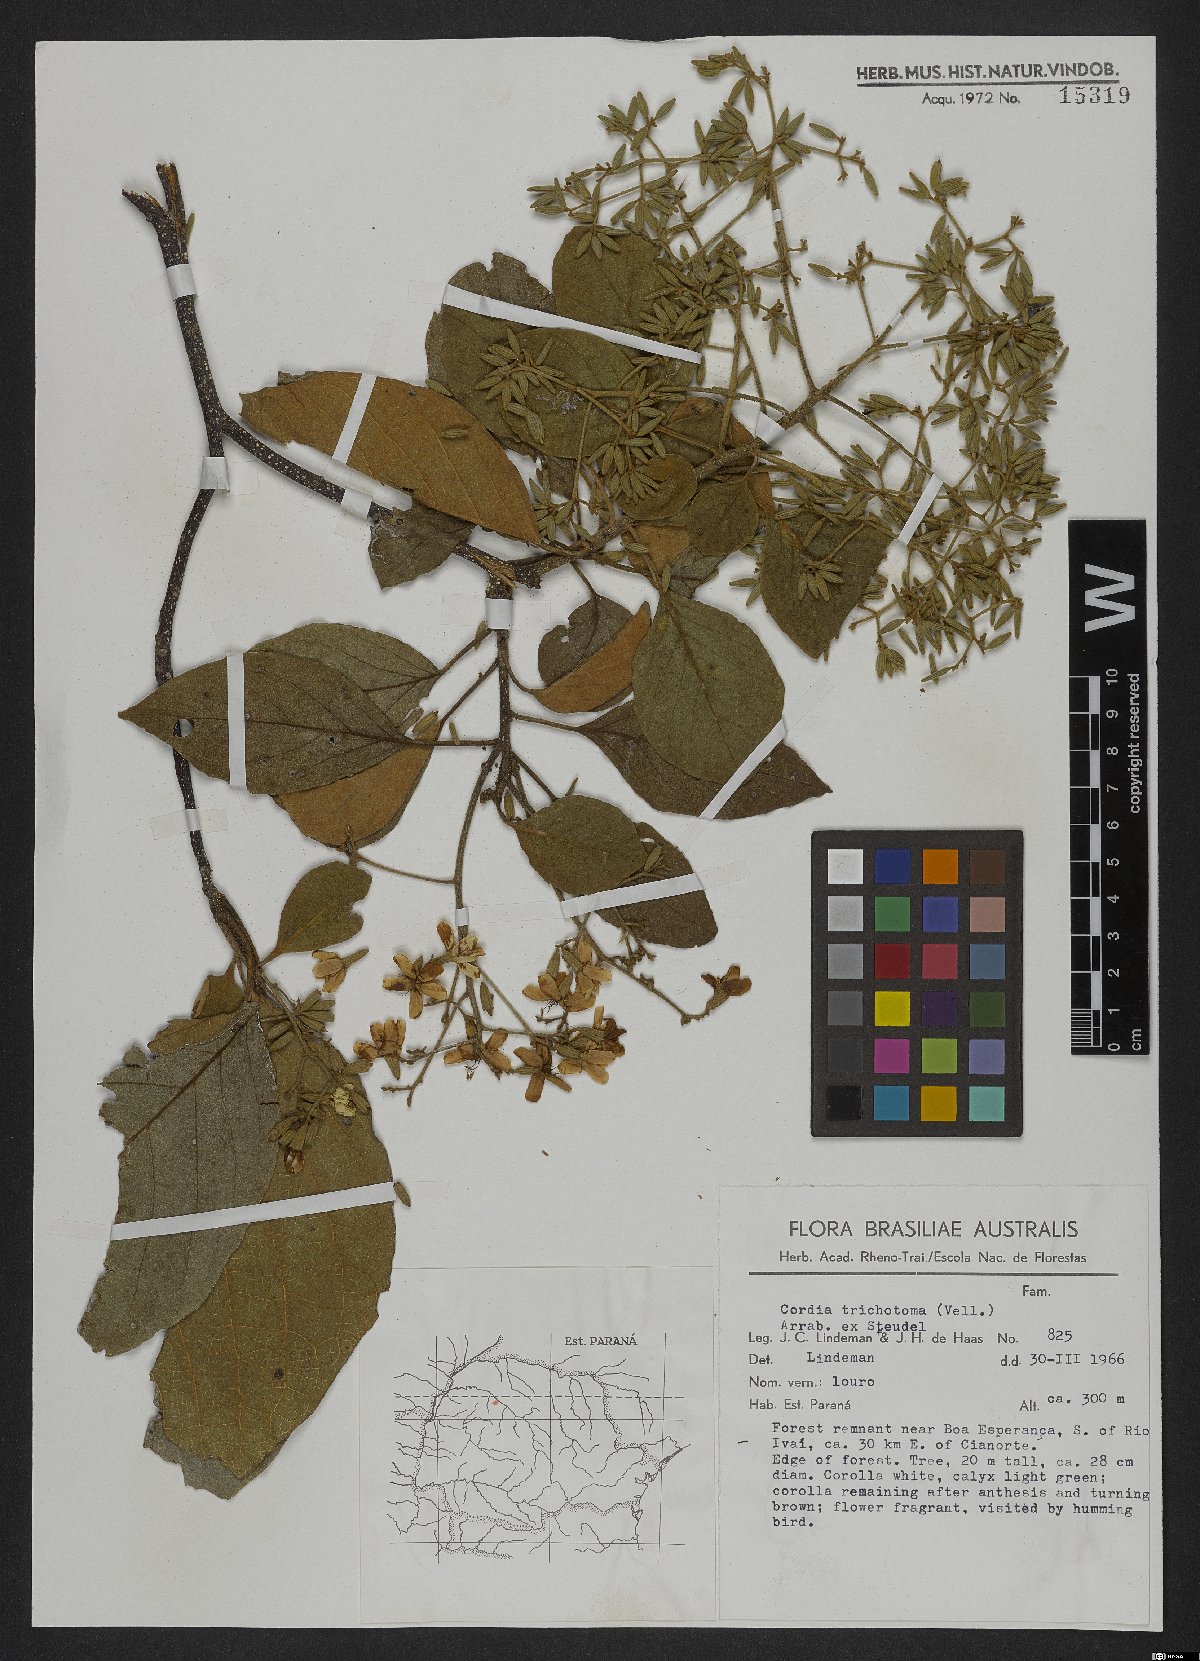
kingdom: Plantae
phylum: Tracheophyta
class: Magnoliopsida
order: Boraginales
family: Cordiaceae
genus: Cordia
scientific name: Cordia trichotoma
